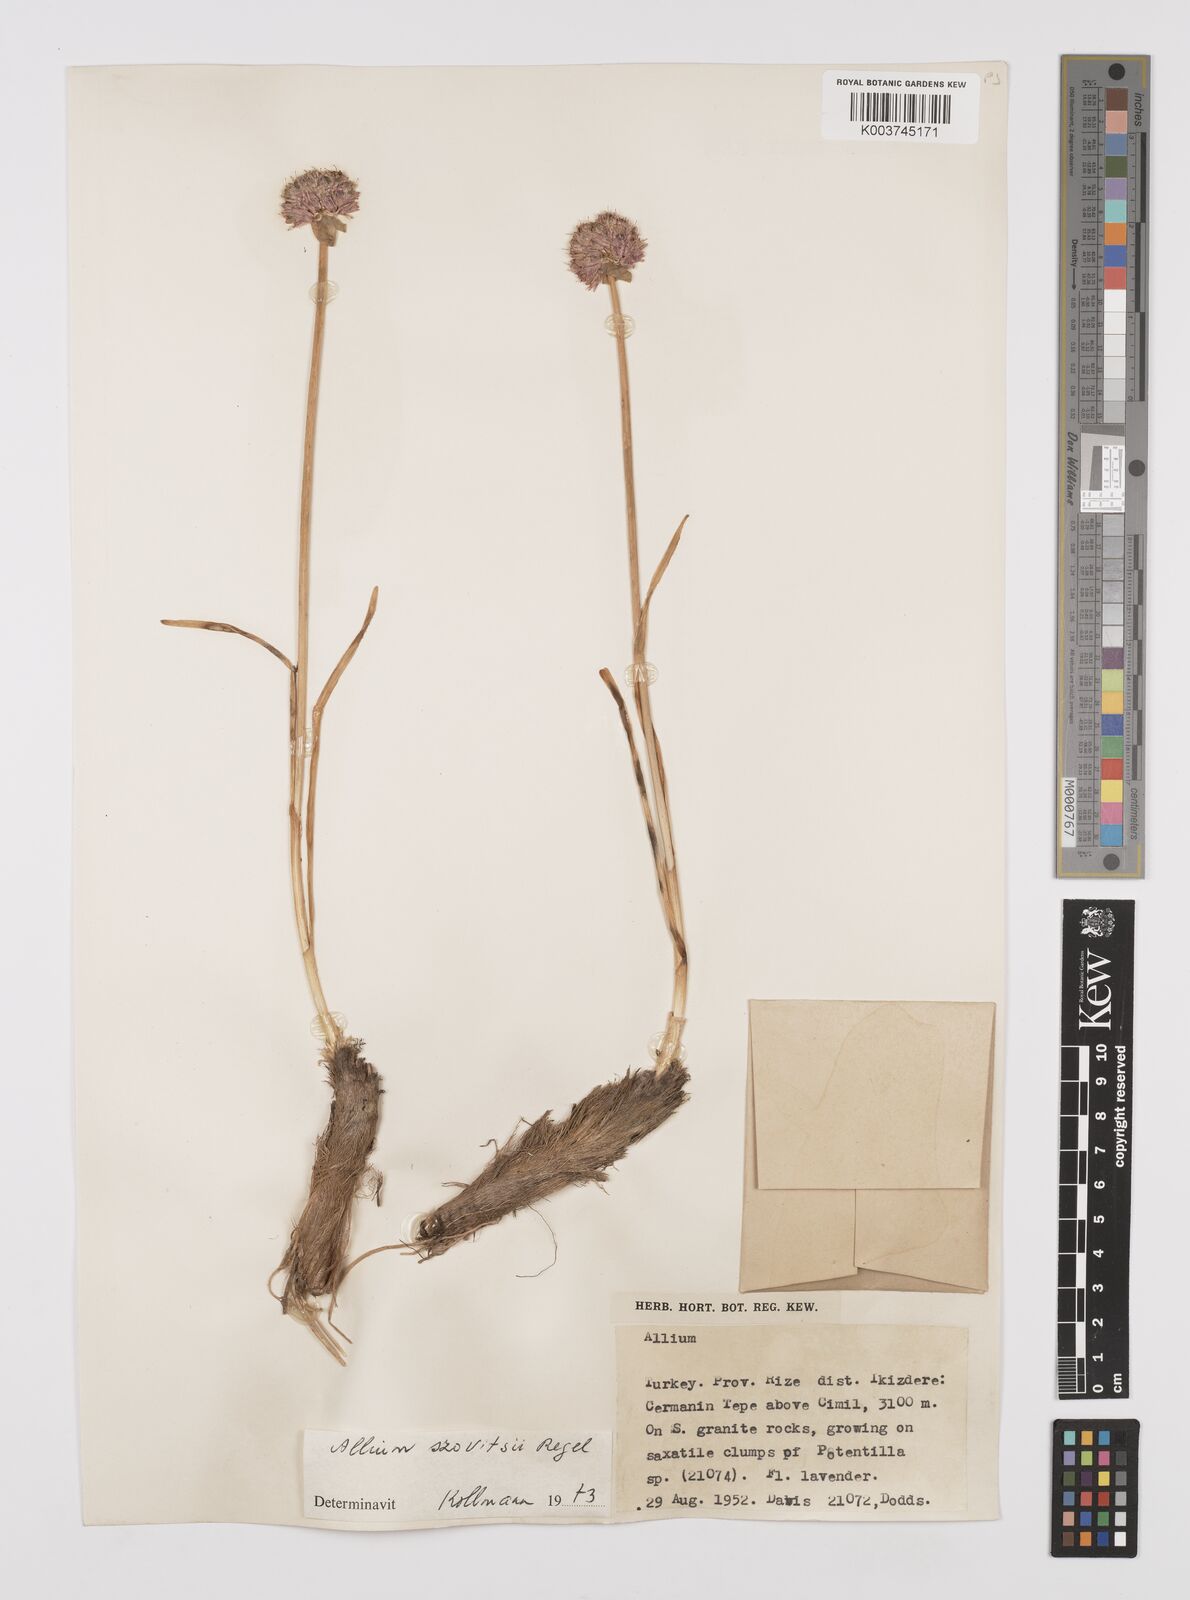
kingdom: Plantae
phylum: Tracheophyta
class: Liliopsida
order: Asparagales
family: Amaryllidaceae
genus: Allium
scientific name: Allium szovitsii
